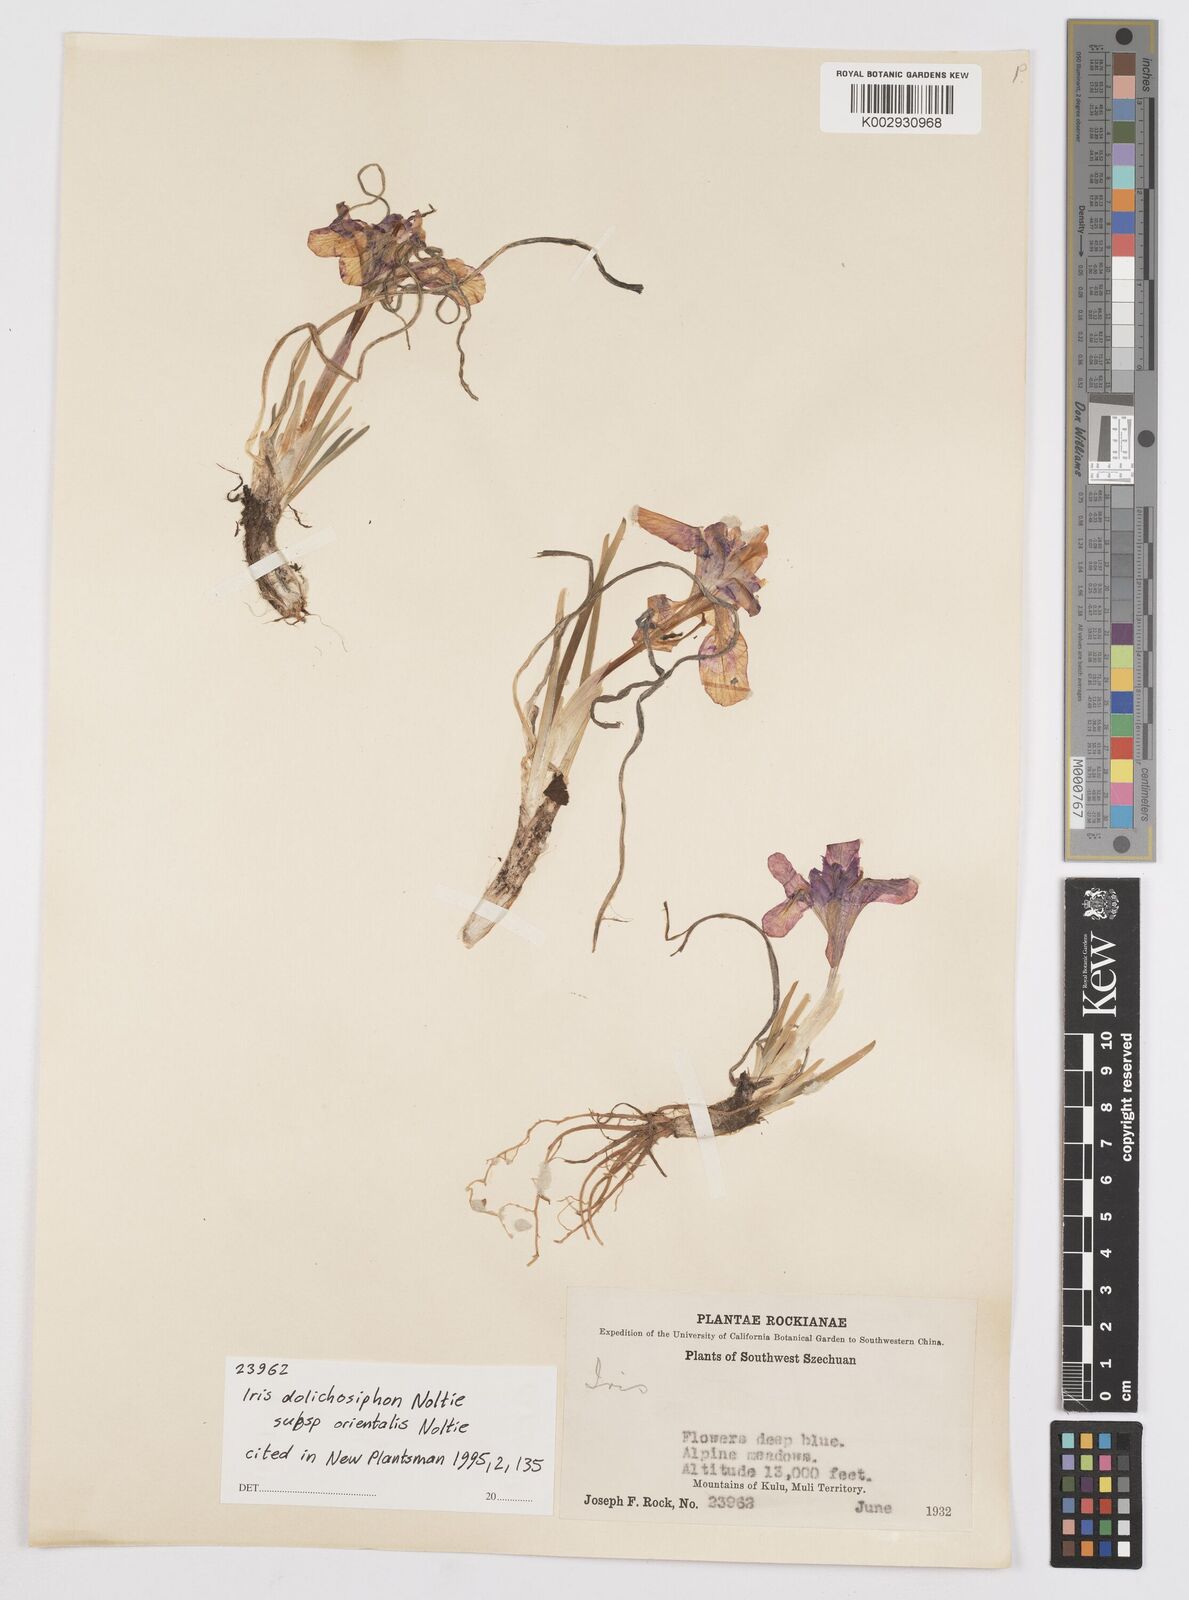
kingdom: Plantae
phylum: Tracheophyta
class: Liliopsida
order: Asparagales
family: Iridaceae
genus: Iris
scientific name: Iris dolichosiphon
